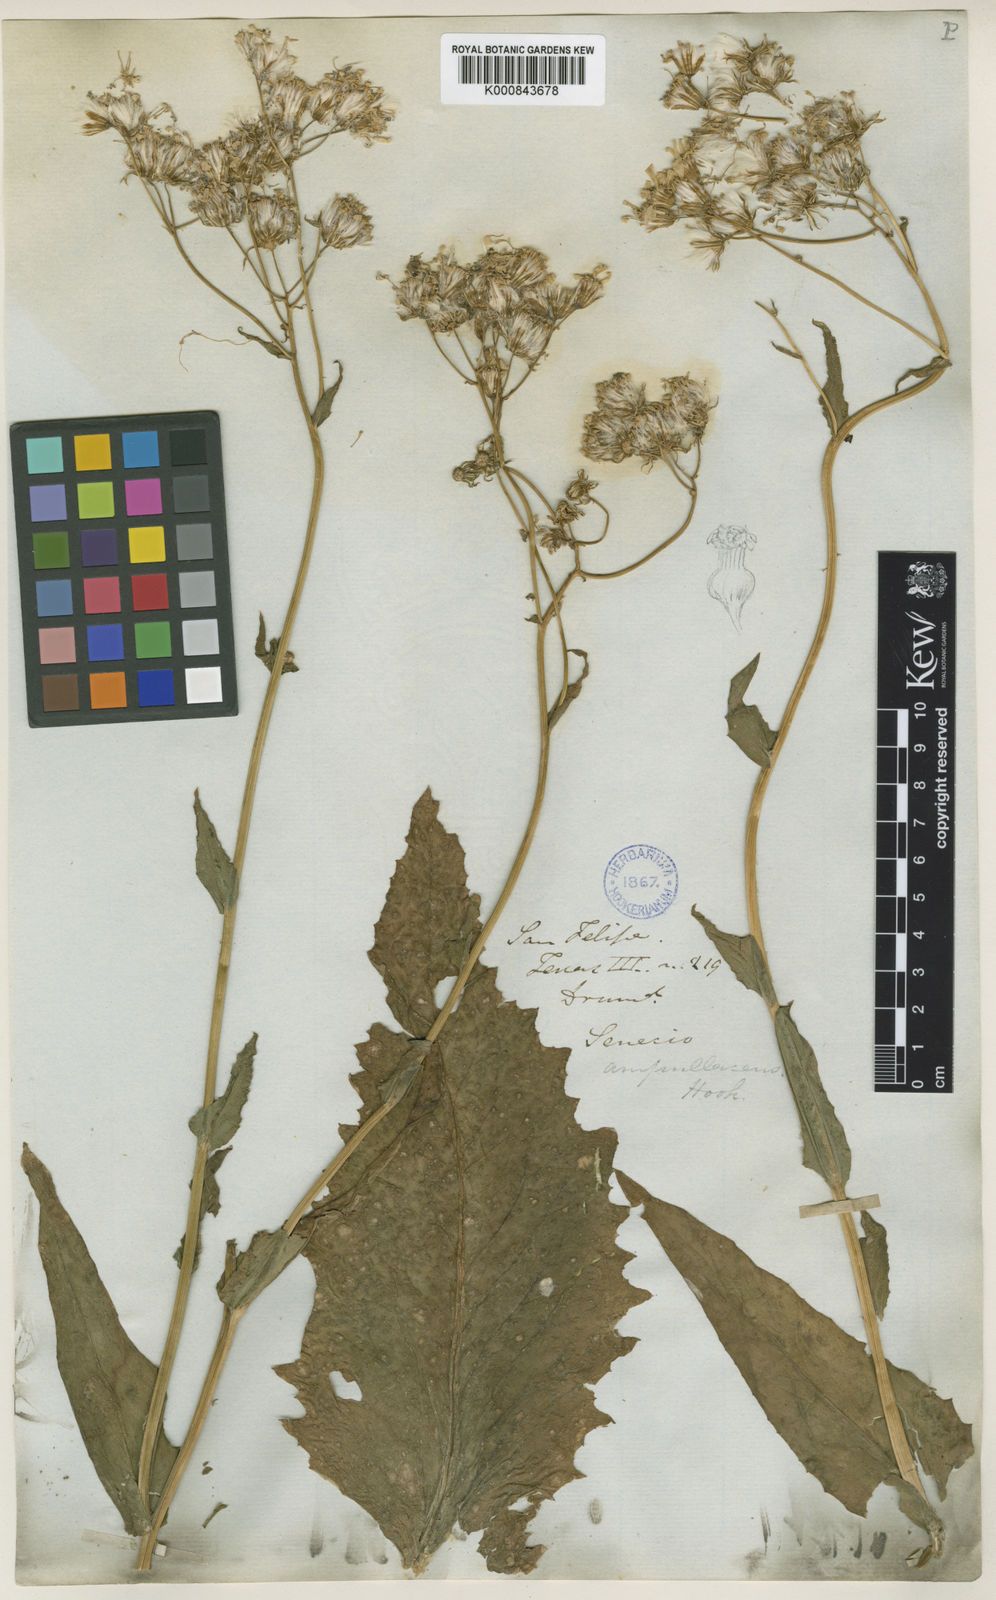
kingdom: Plantae
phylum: Tracheophyta
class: Magnoliopsida
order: Asterales
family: Asteraceae
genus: Senecio
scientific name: Senecio ampullaceus
